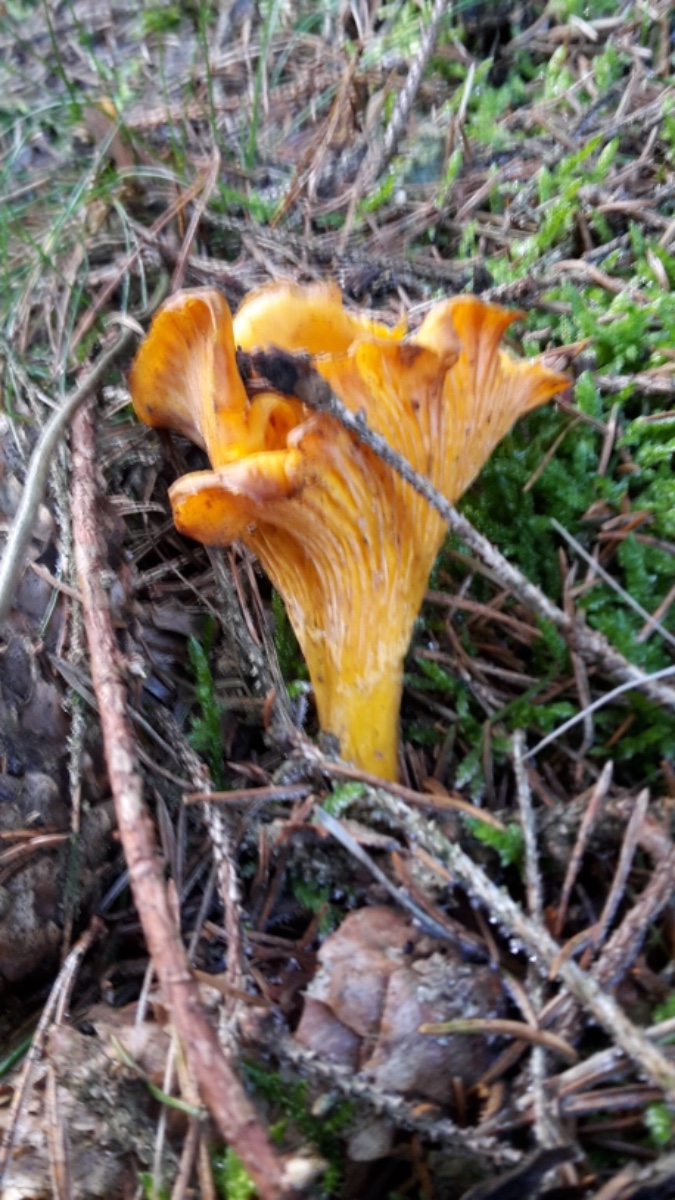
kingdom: Fungi
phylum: Basidiomycota
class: Agaricomycetes
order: Cantharellales
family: Hydnaceae
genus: Cantharellus
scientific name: Cantharellus cibarius
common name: almindelig kantarel
